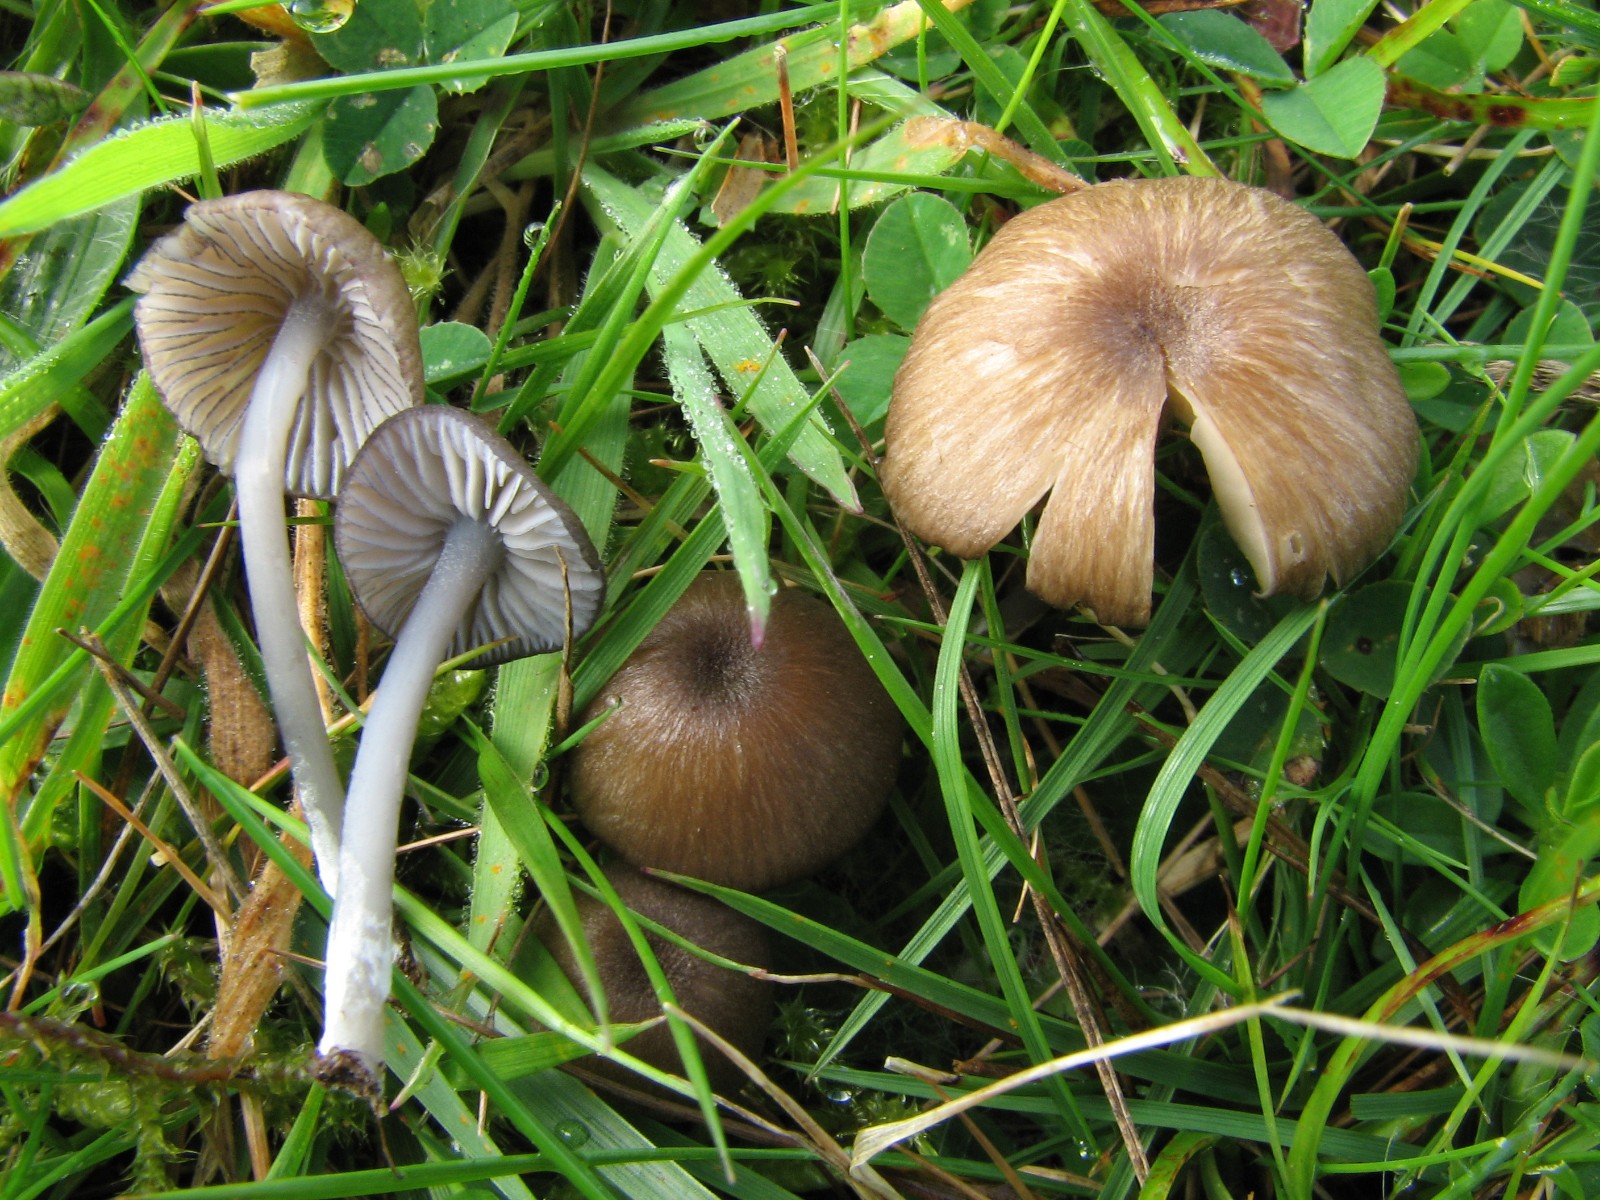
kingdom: Fungi
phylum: Basidiomycota
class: Agaricomycetes
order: Agaricales
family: Entolomataceae
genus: Entoloma
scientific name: Entoloma caesiocinctum
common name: Blue-girdled pinkgill
